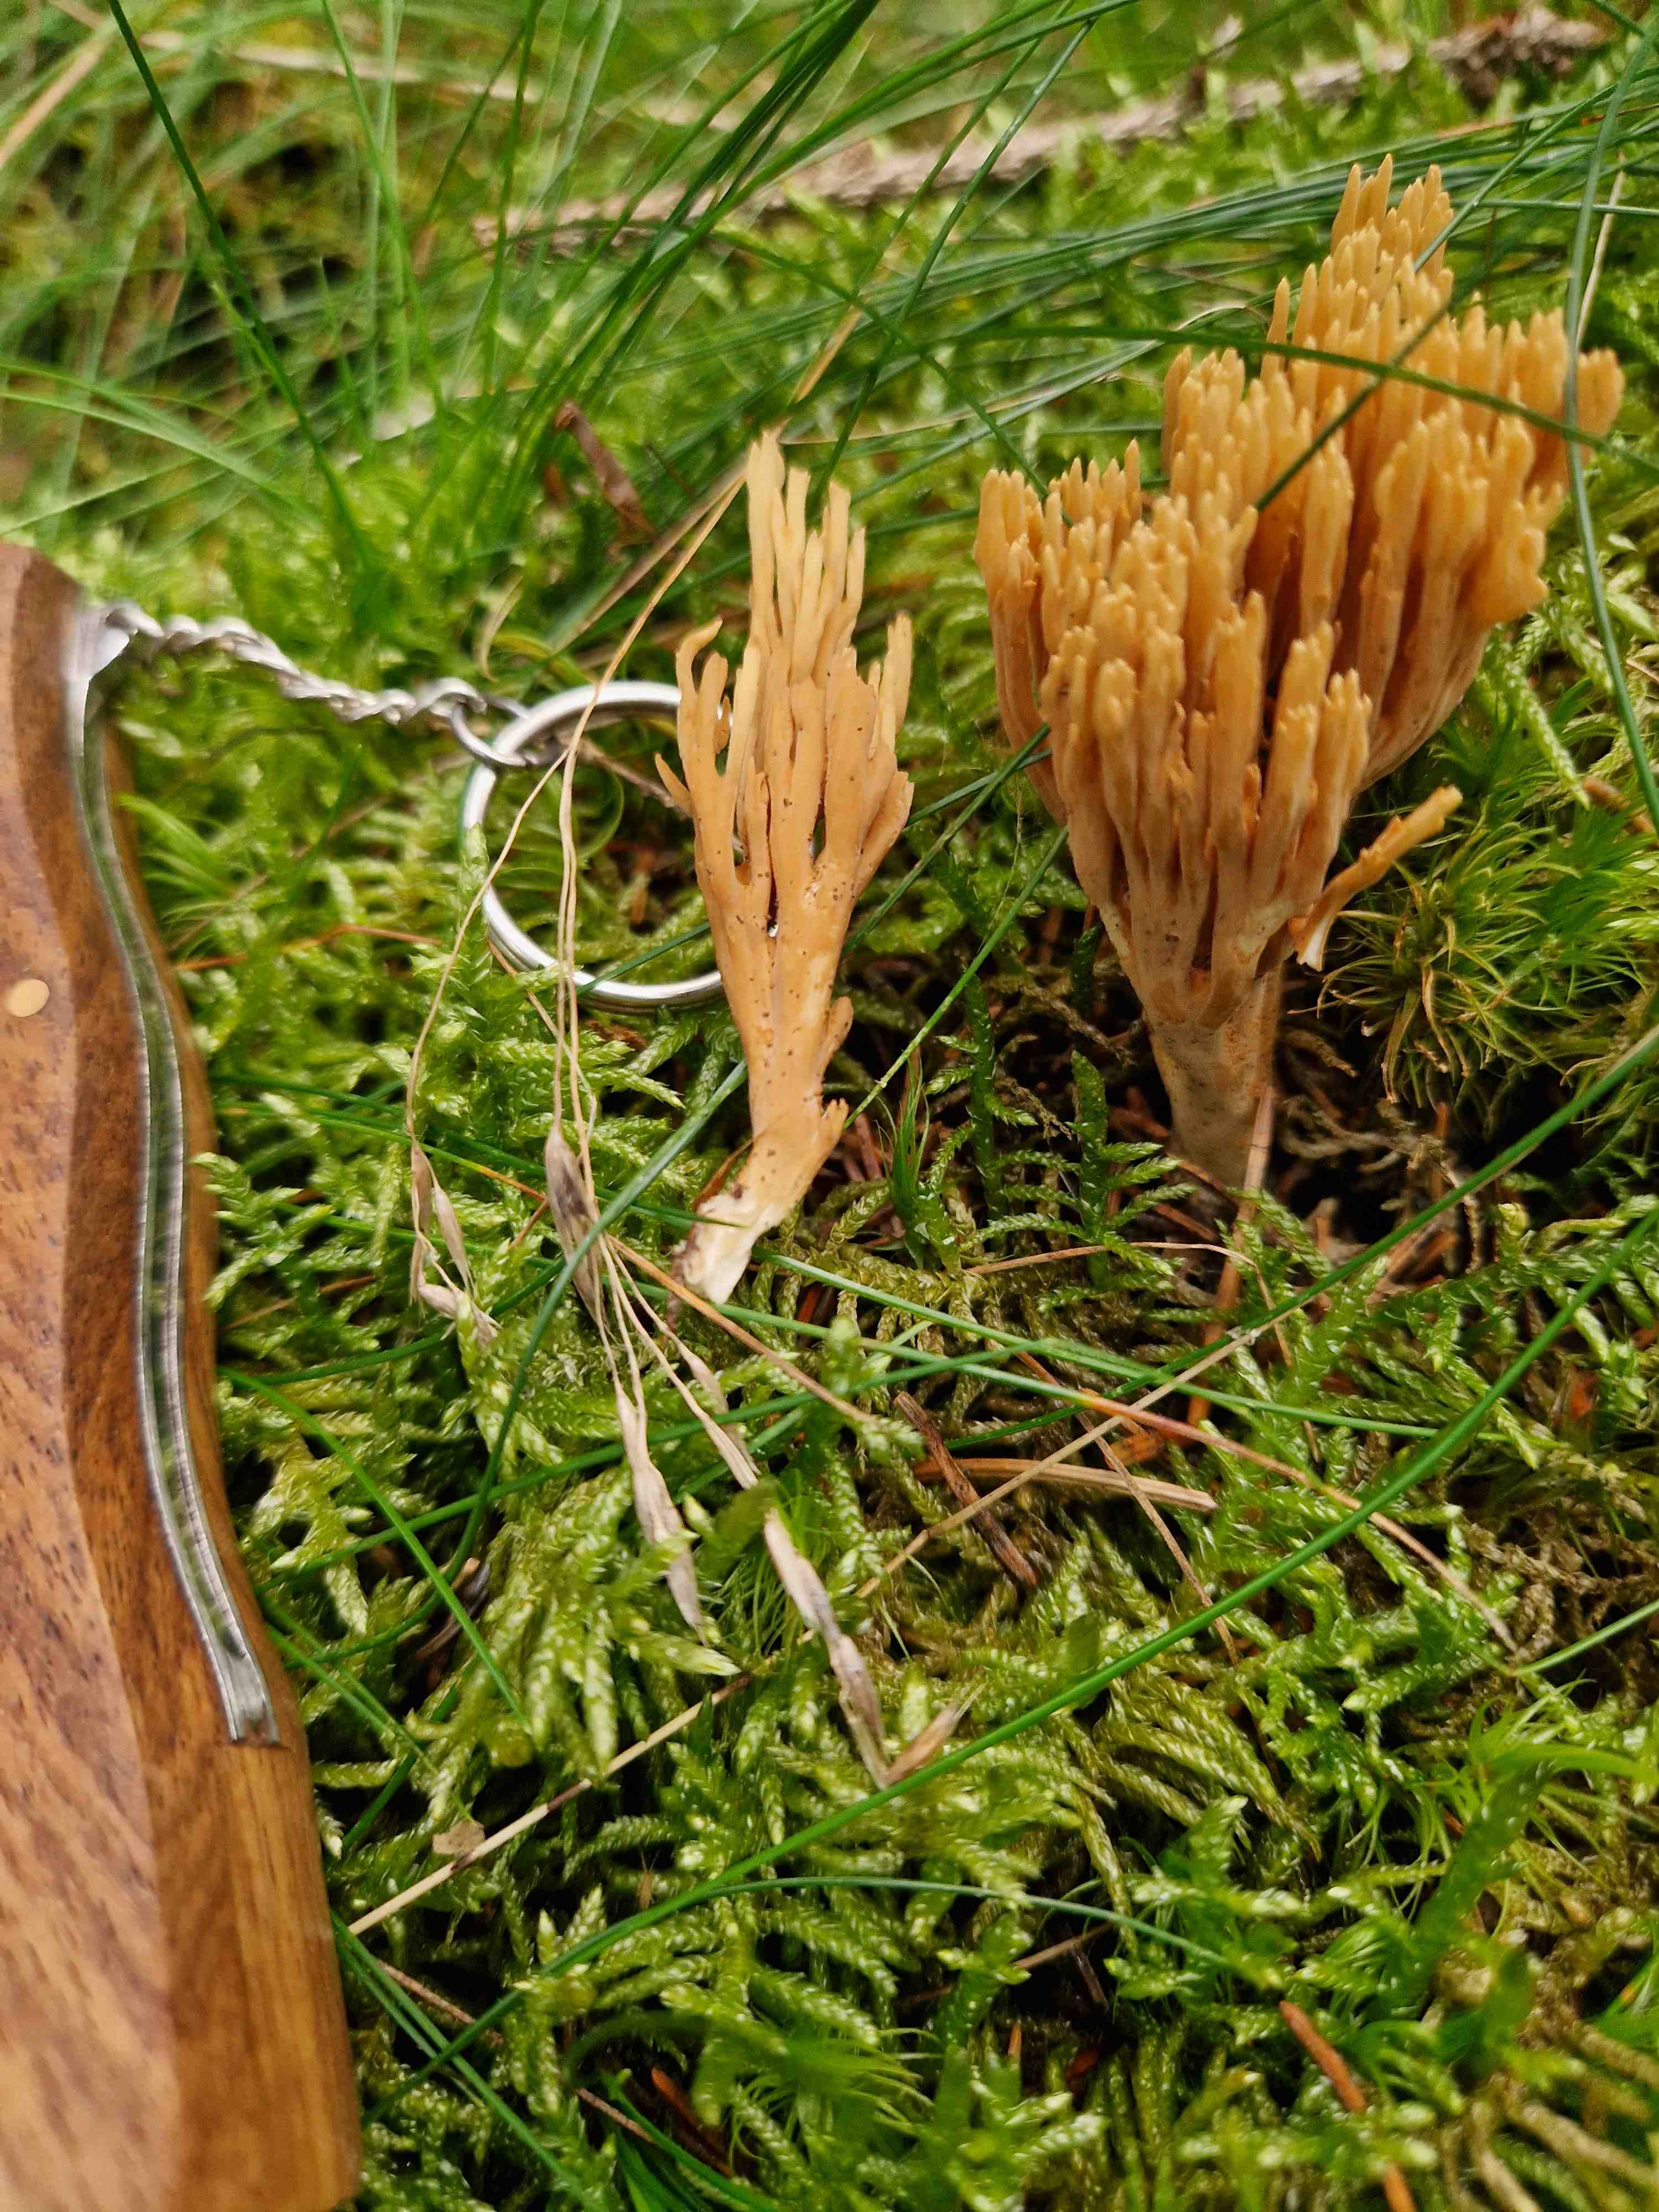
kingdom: Fungi
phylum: Basidiomycota
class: Agaricomycetes
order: Gomphales
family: Gomphaceae
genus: Phaeoclavulina
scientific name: Phaeoclavulina eumorpha
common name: gran-koralsvamp
